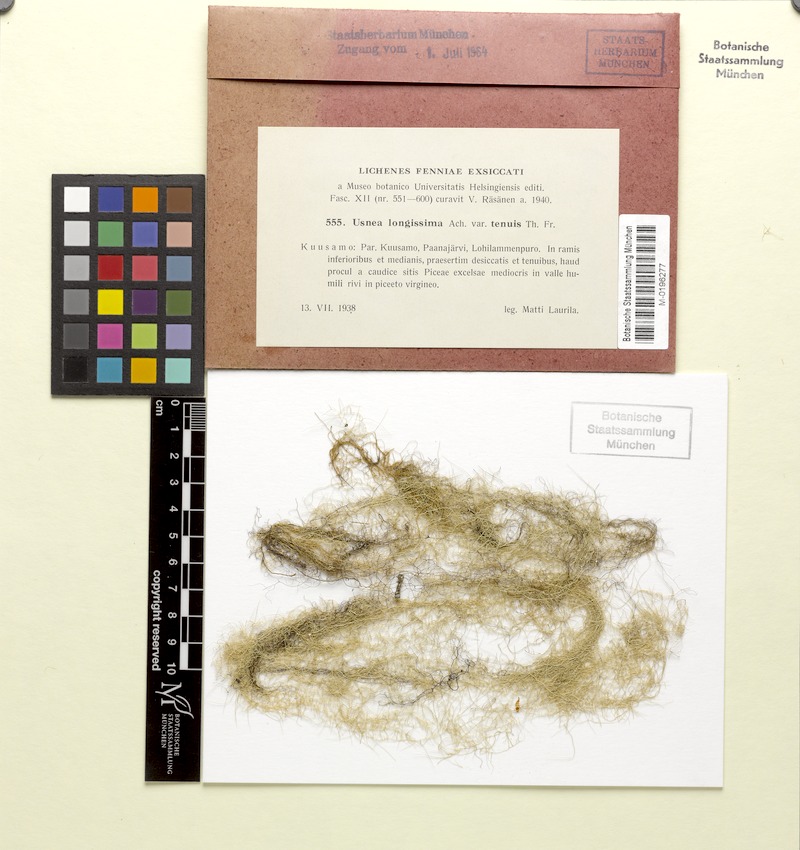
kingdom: Fungi
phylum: Ascomycota
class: Lecanoromycetes
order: Lecanorales
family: Parmeliaceae
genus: Dolichousnea
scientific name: Dolichousnea longissima
